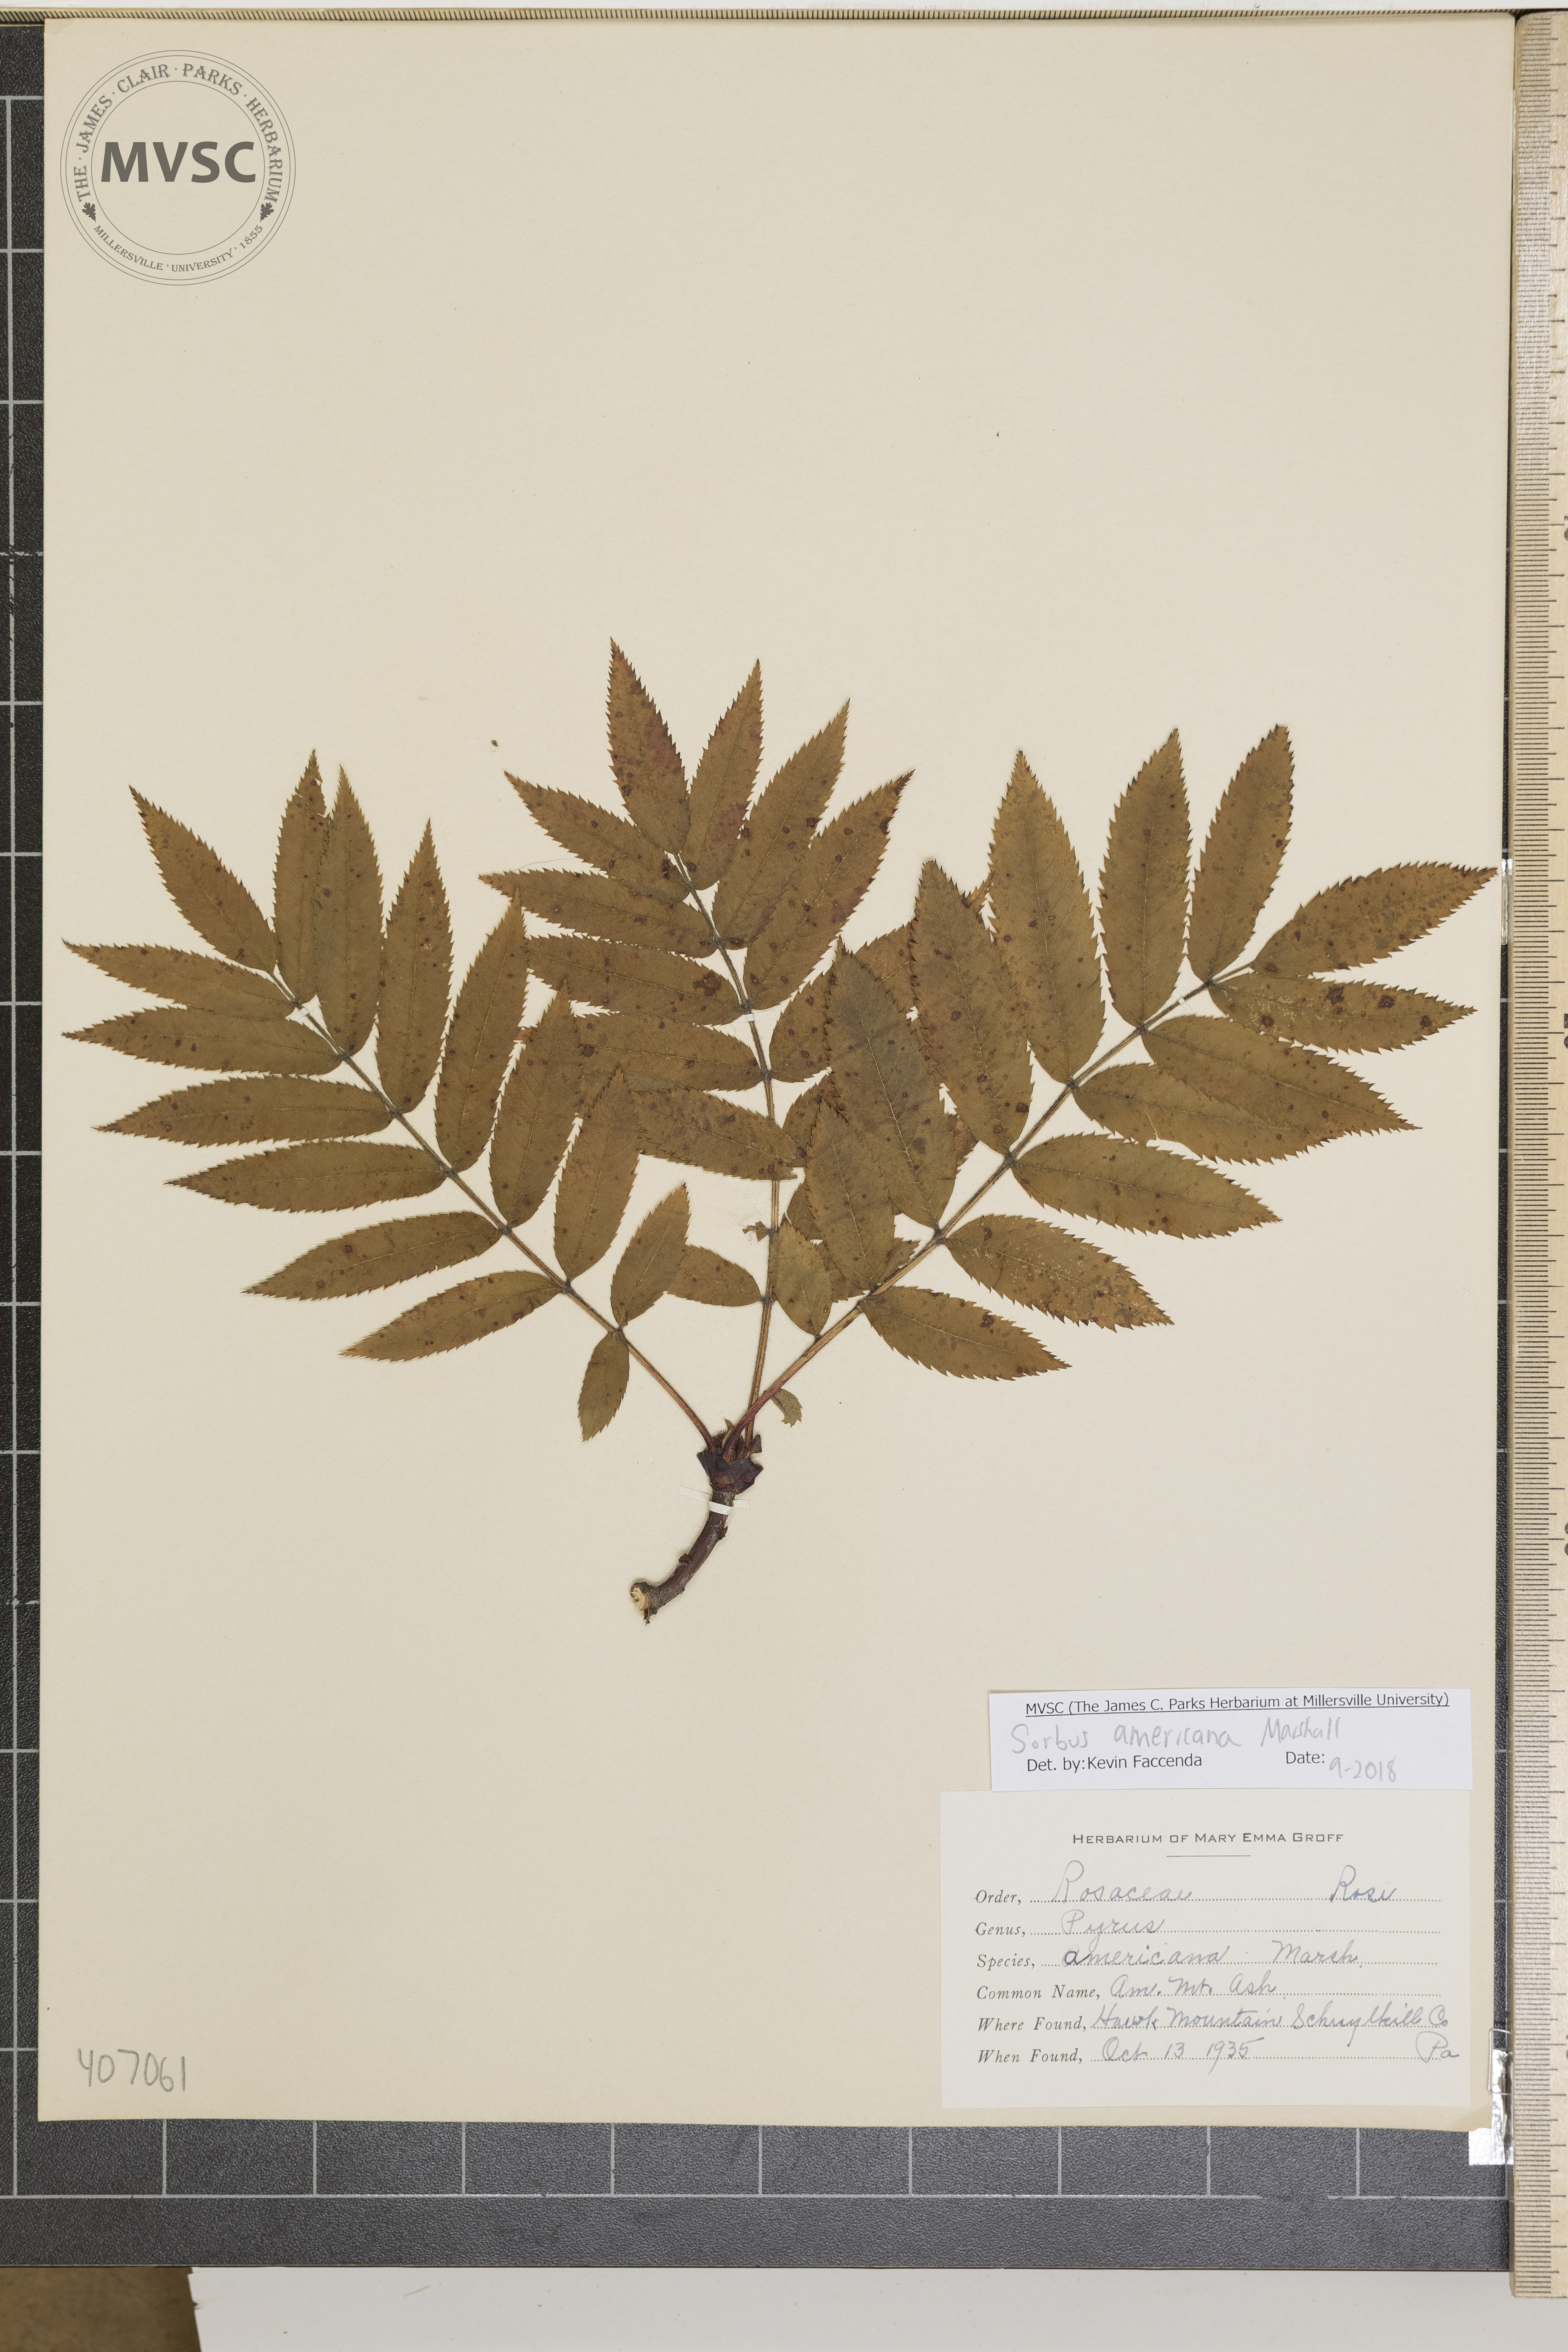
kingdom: Plantae
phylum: Tracheophyta
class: Magnoliopsida
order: Rosales
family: Rosaceae
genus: Sorbus
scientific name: Sorbus americana
